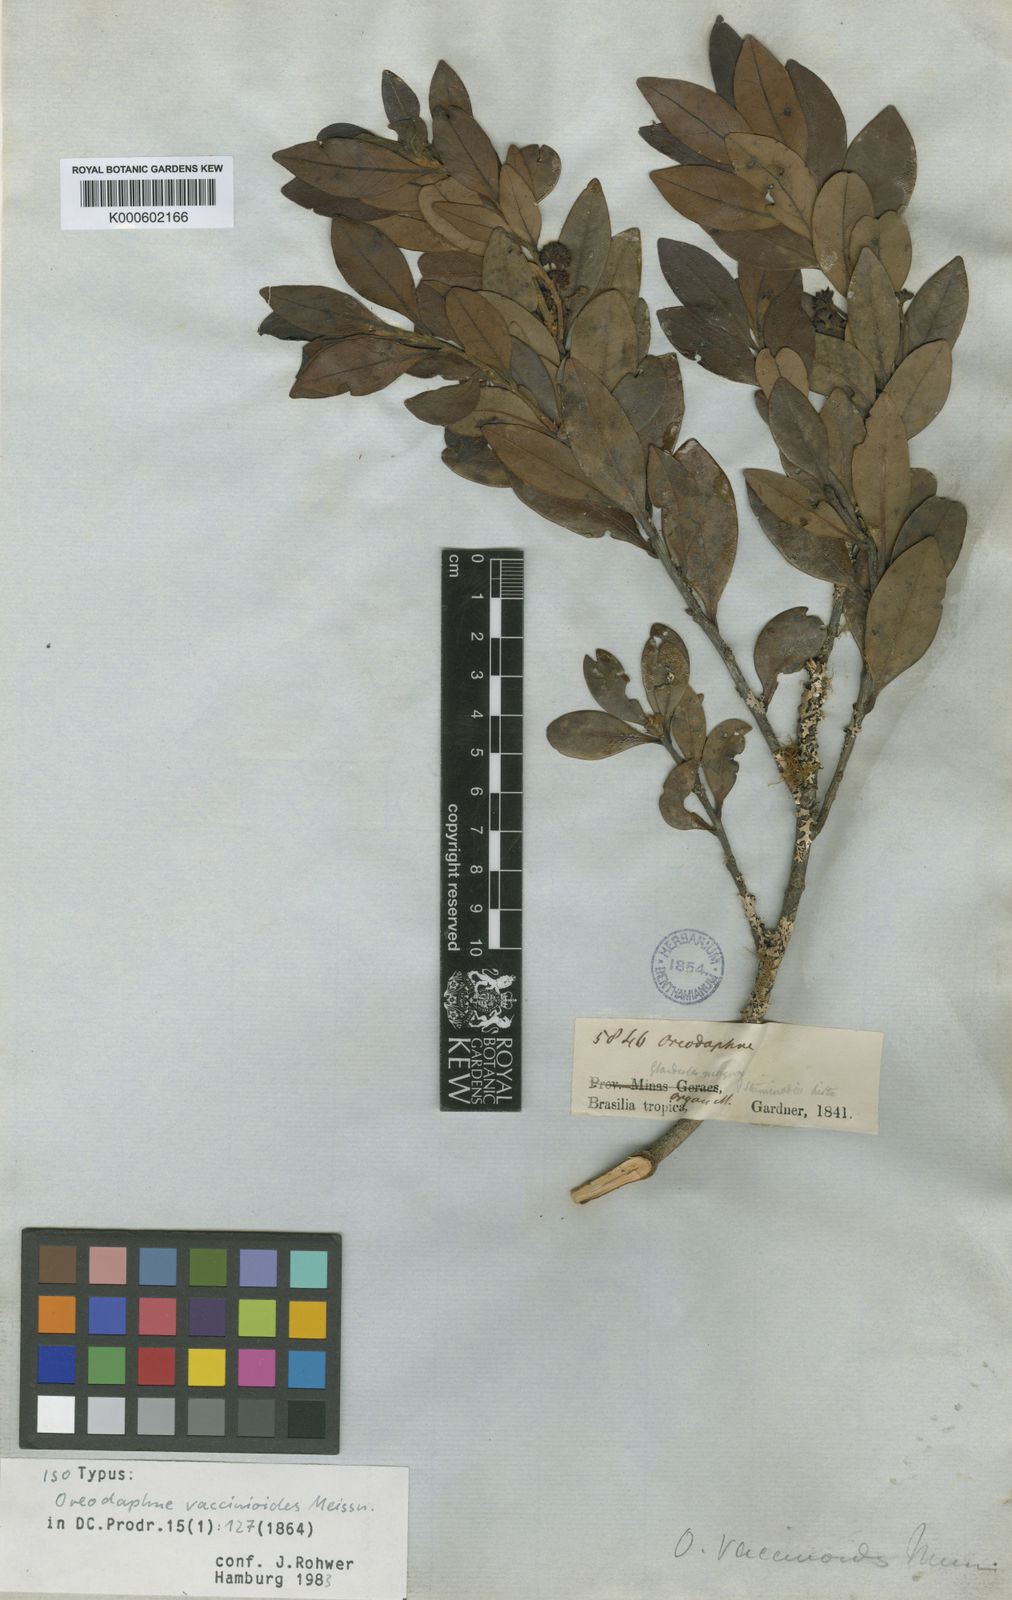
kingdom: Plantae
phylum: Tracheophyta
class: Magnoliopsida
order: Laurales
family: Lauraceae
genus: Ocotea
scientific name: Ocotea vaccinioides
